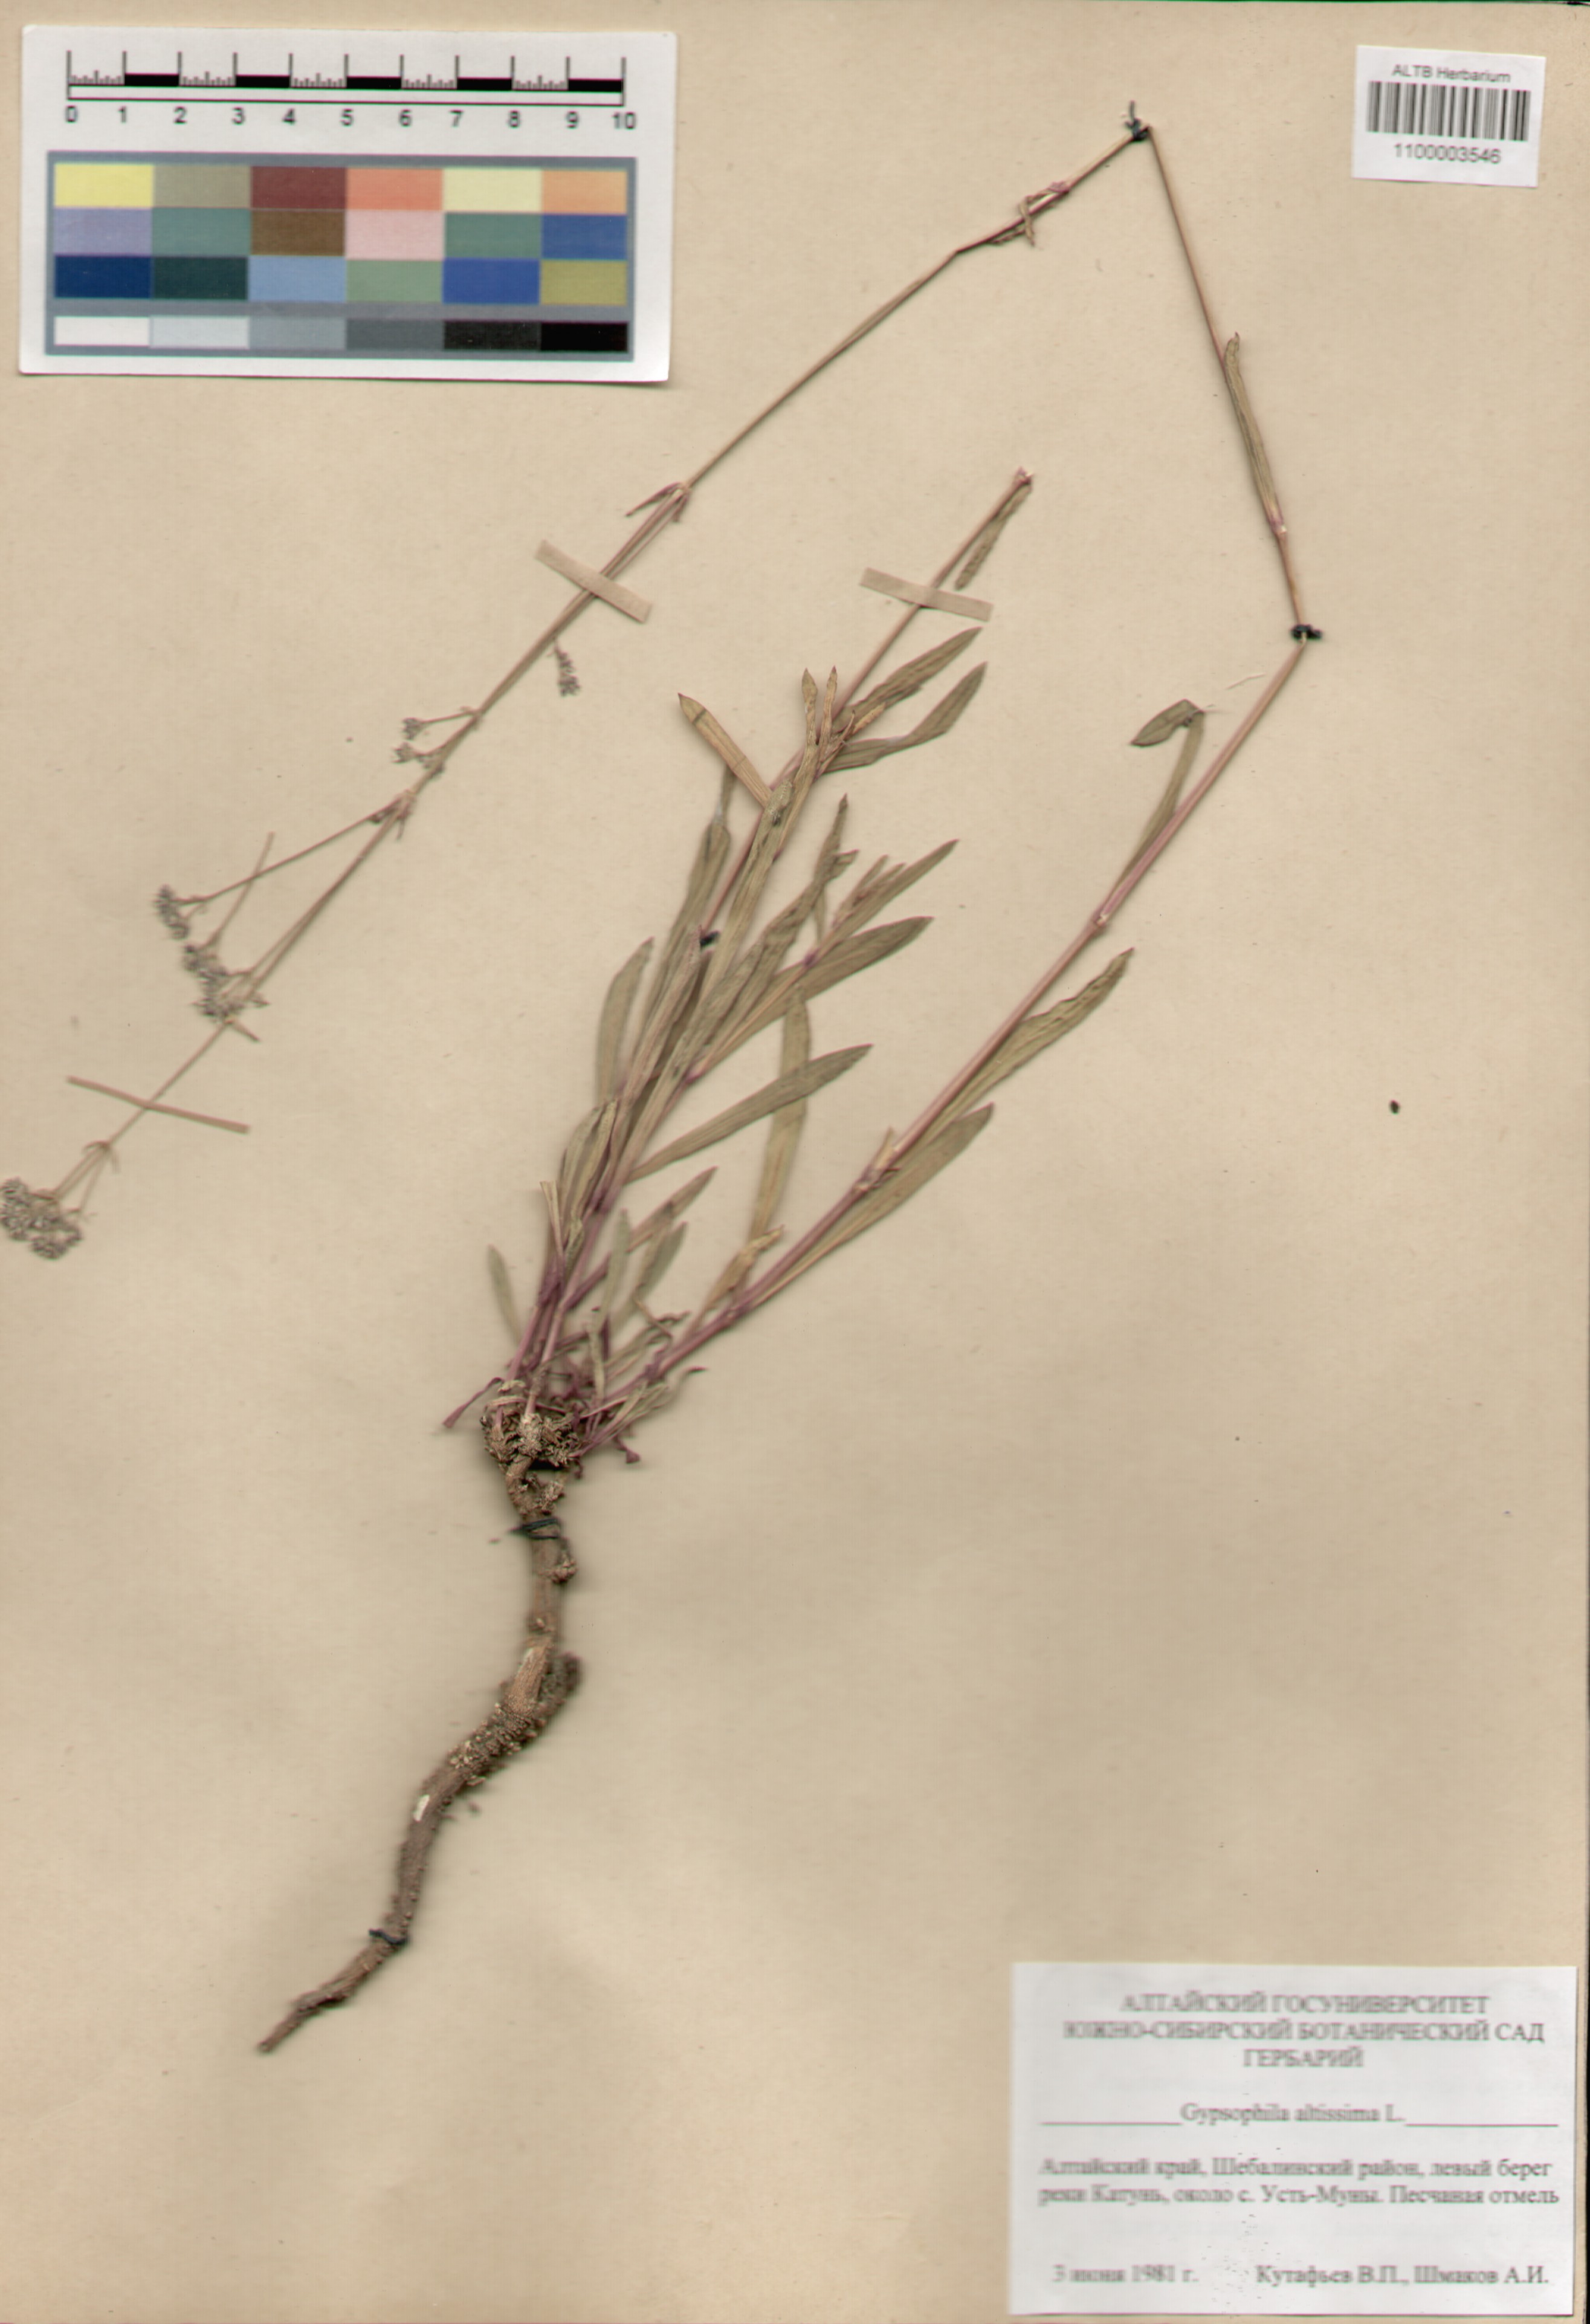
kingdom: Plantae
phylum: Tracheophyta
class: Magnoliopsida
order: Caryophyllales
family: Caryophyllaceae
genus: Gypsophila
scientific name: Gypsophila altissima
